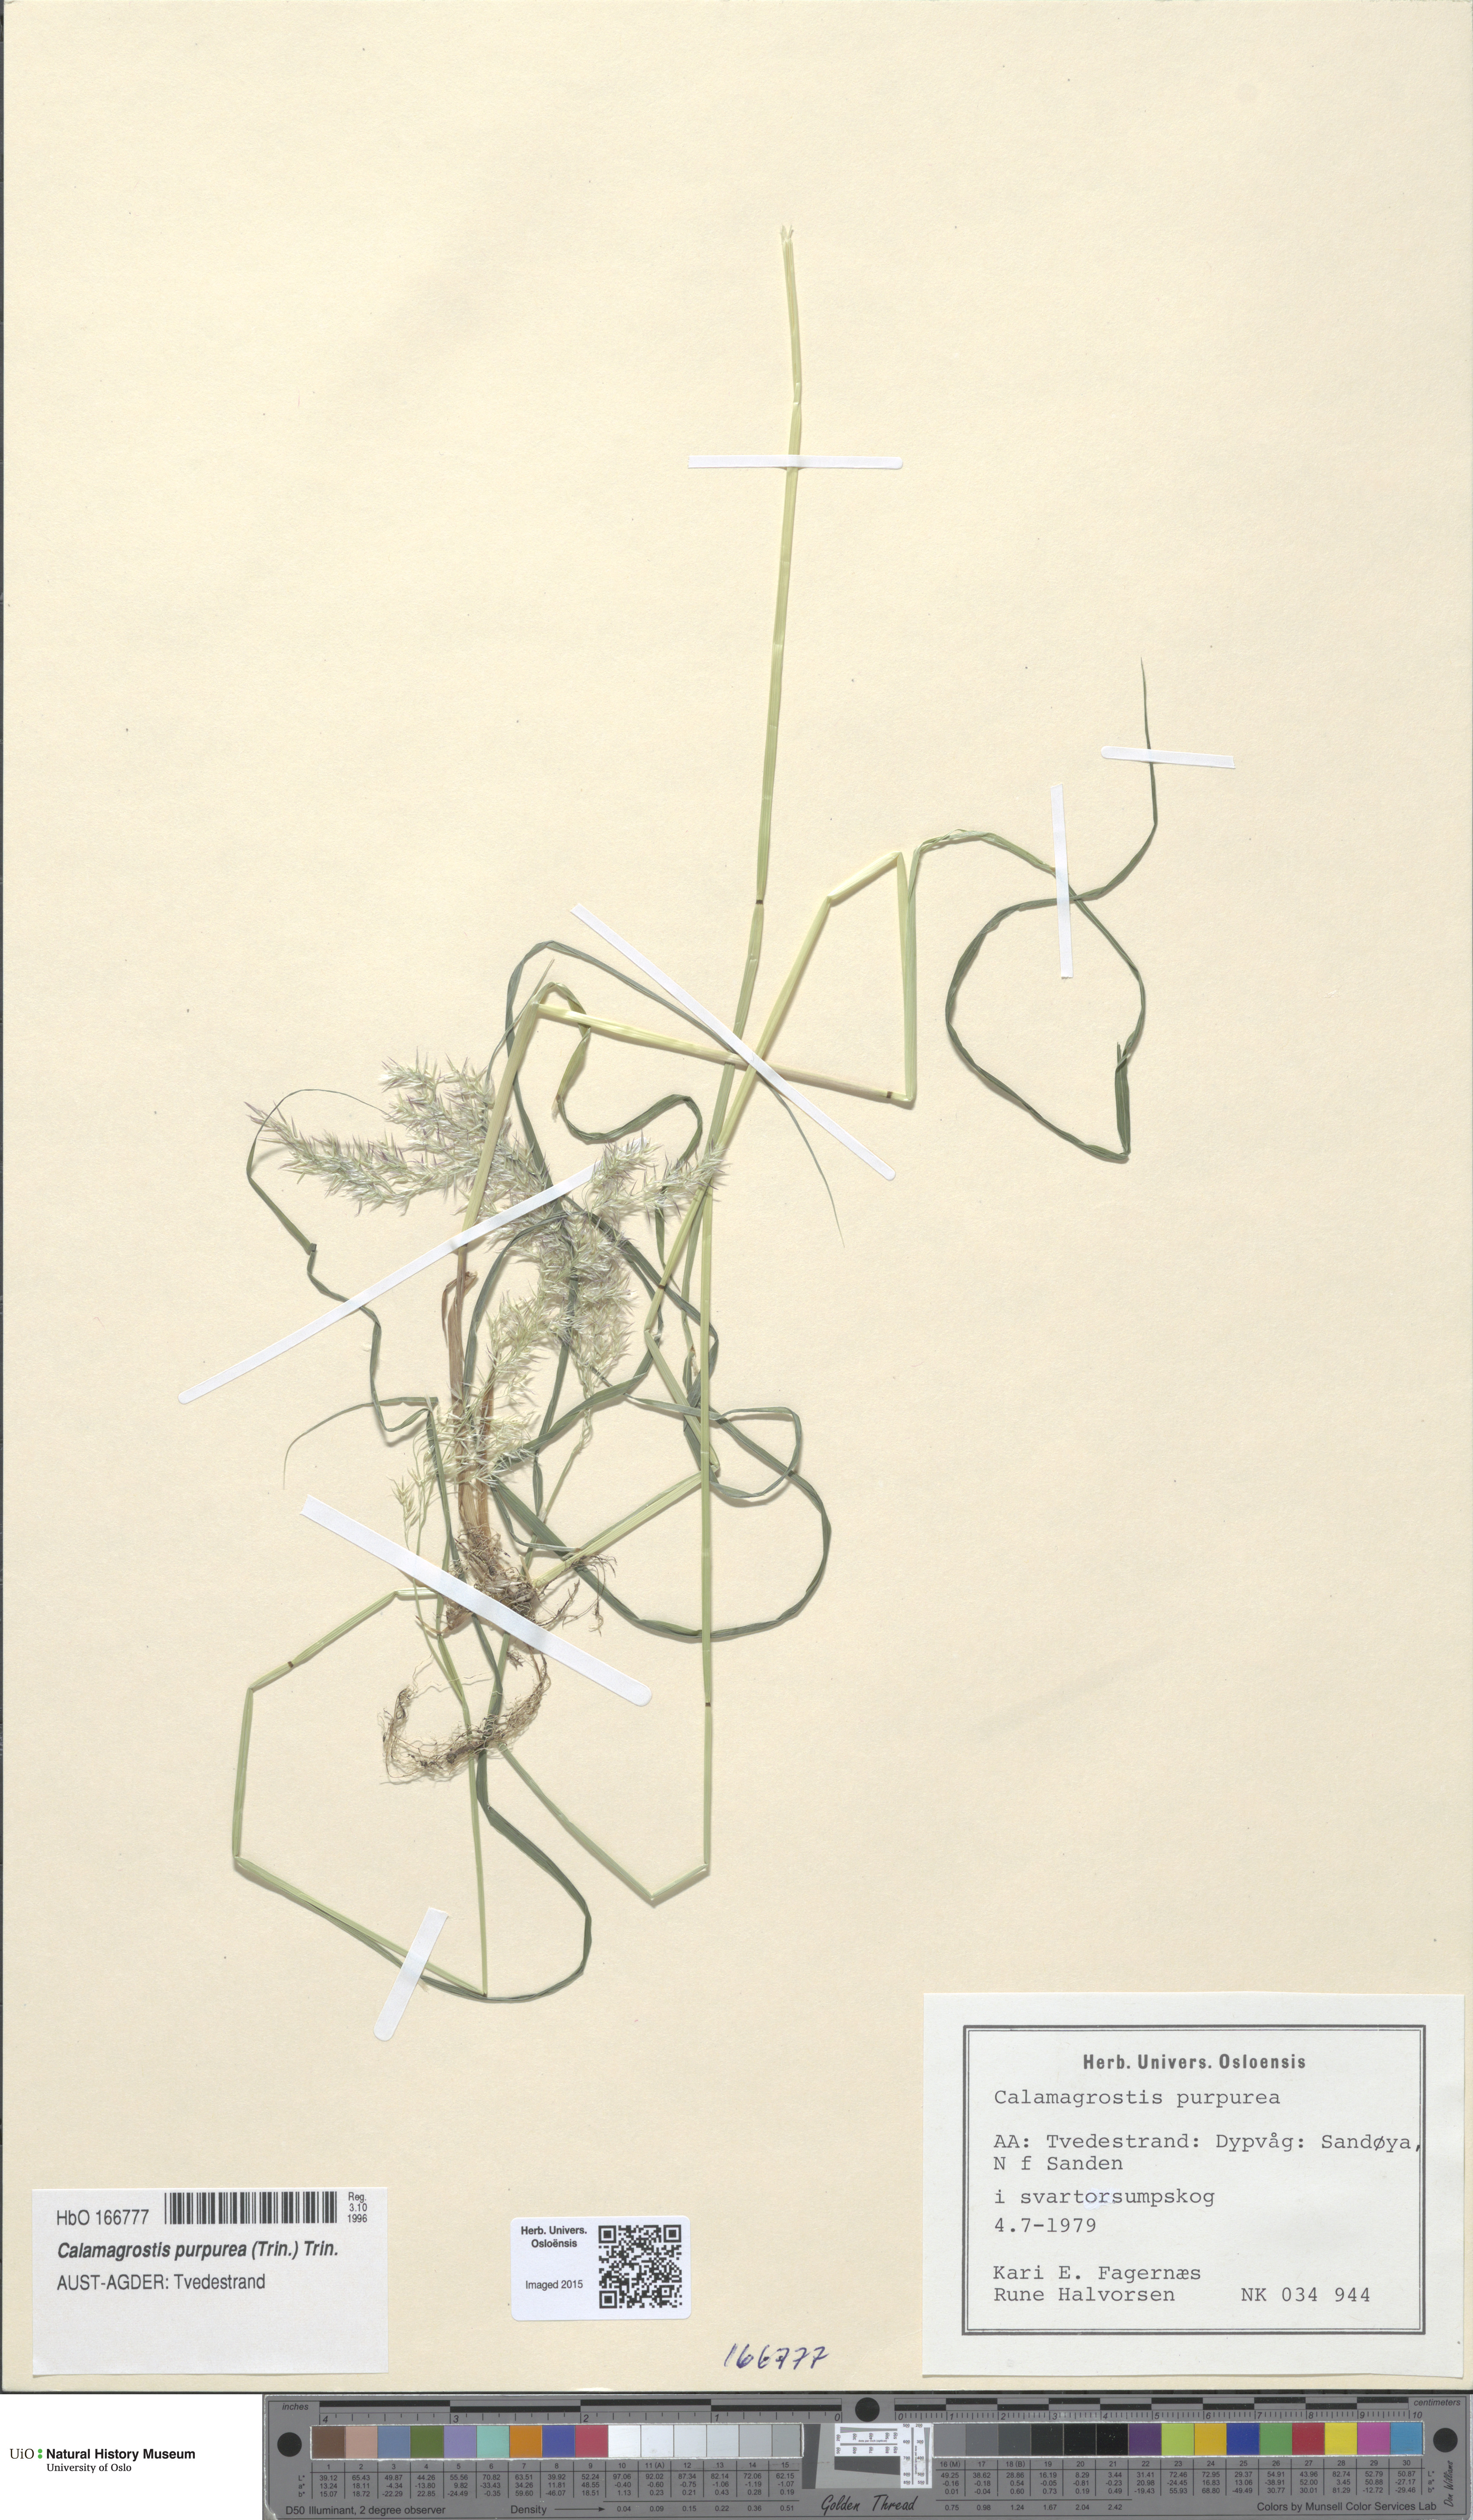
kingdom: Plantae
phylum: Tracheophyta
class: Liliopsida
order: Poales
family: Poaceae
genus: Calamagrostis
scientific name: Calamagrostis purpurea
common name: Scandinavian small-reed
